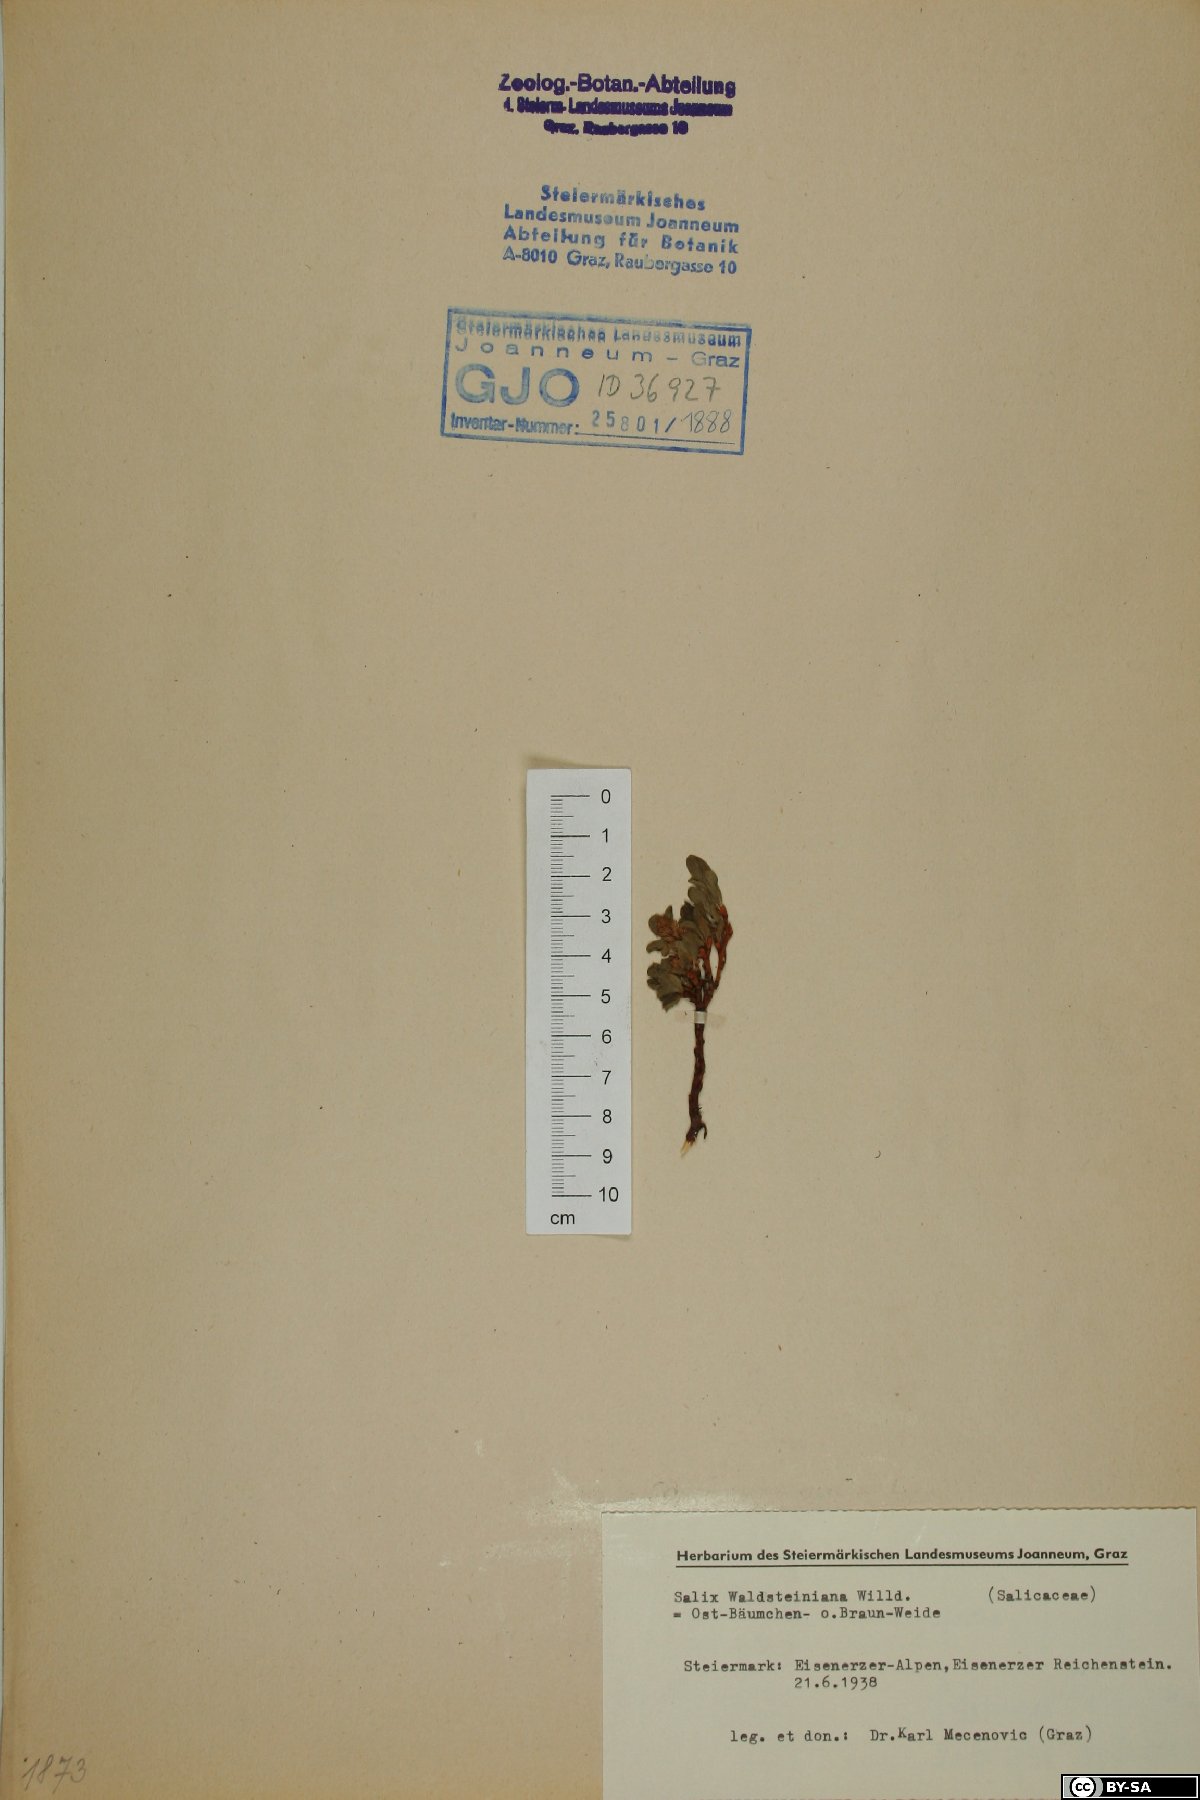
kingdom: Plantae
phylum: Tracheophyta
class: Magnoliopsida
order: Malpighiales
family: Salicaceae
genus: Salix
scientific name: Salix waldsteiniana
